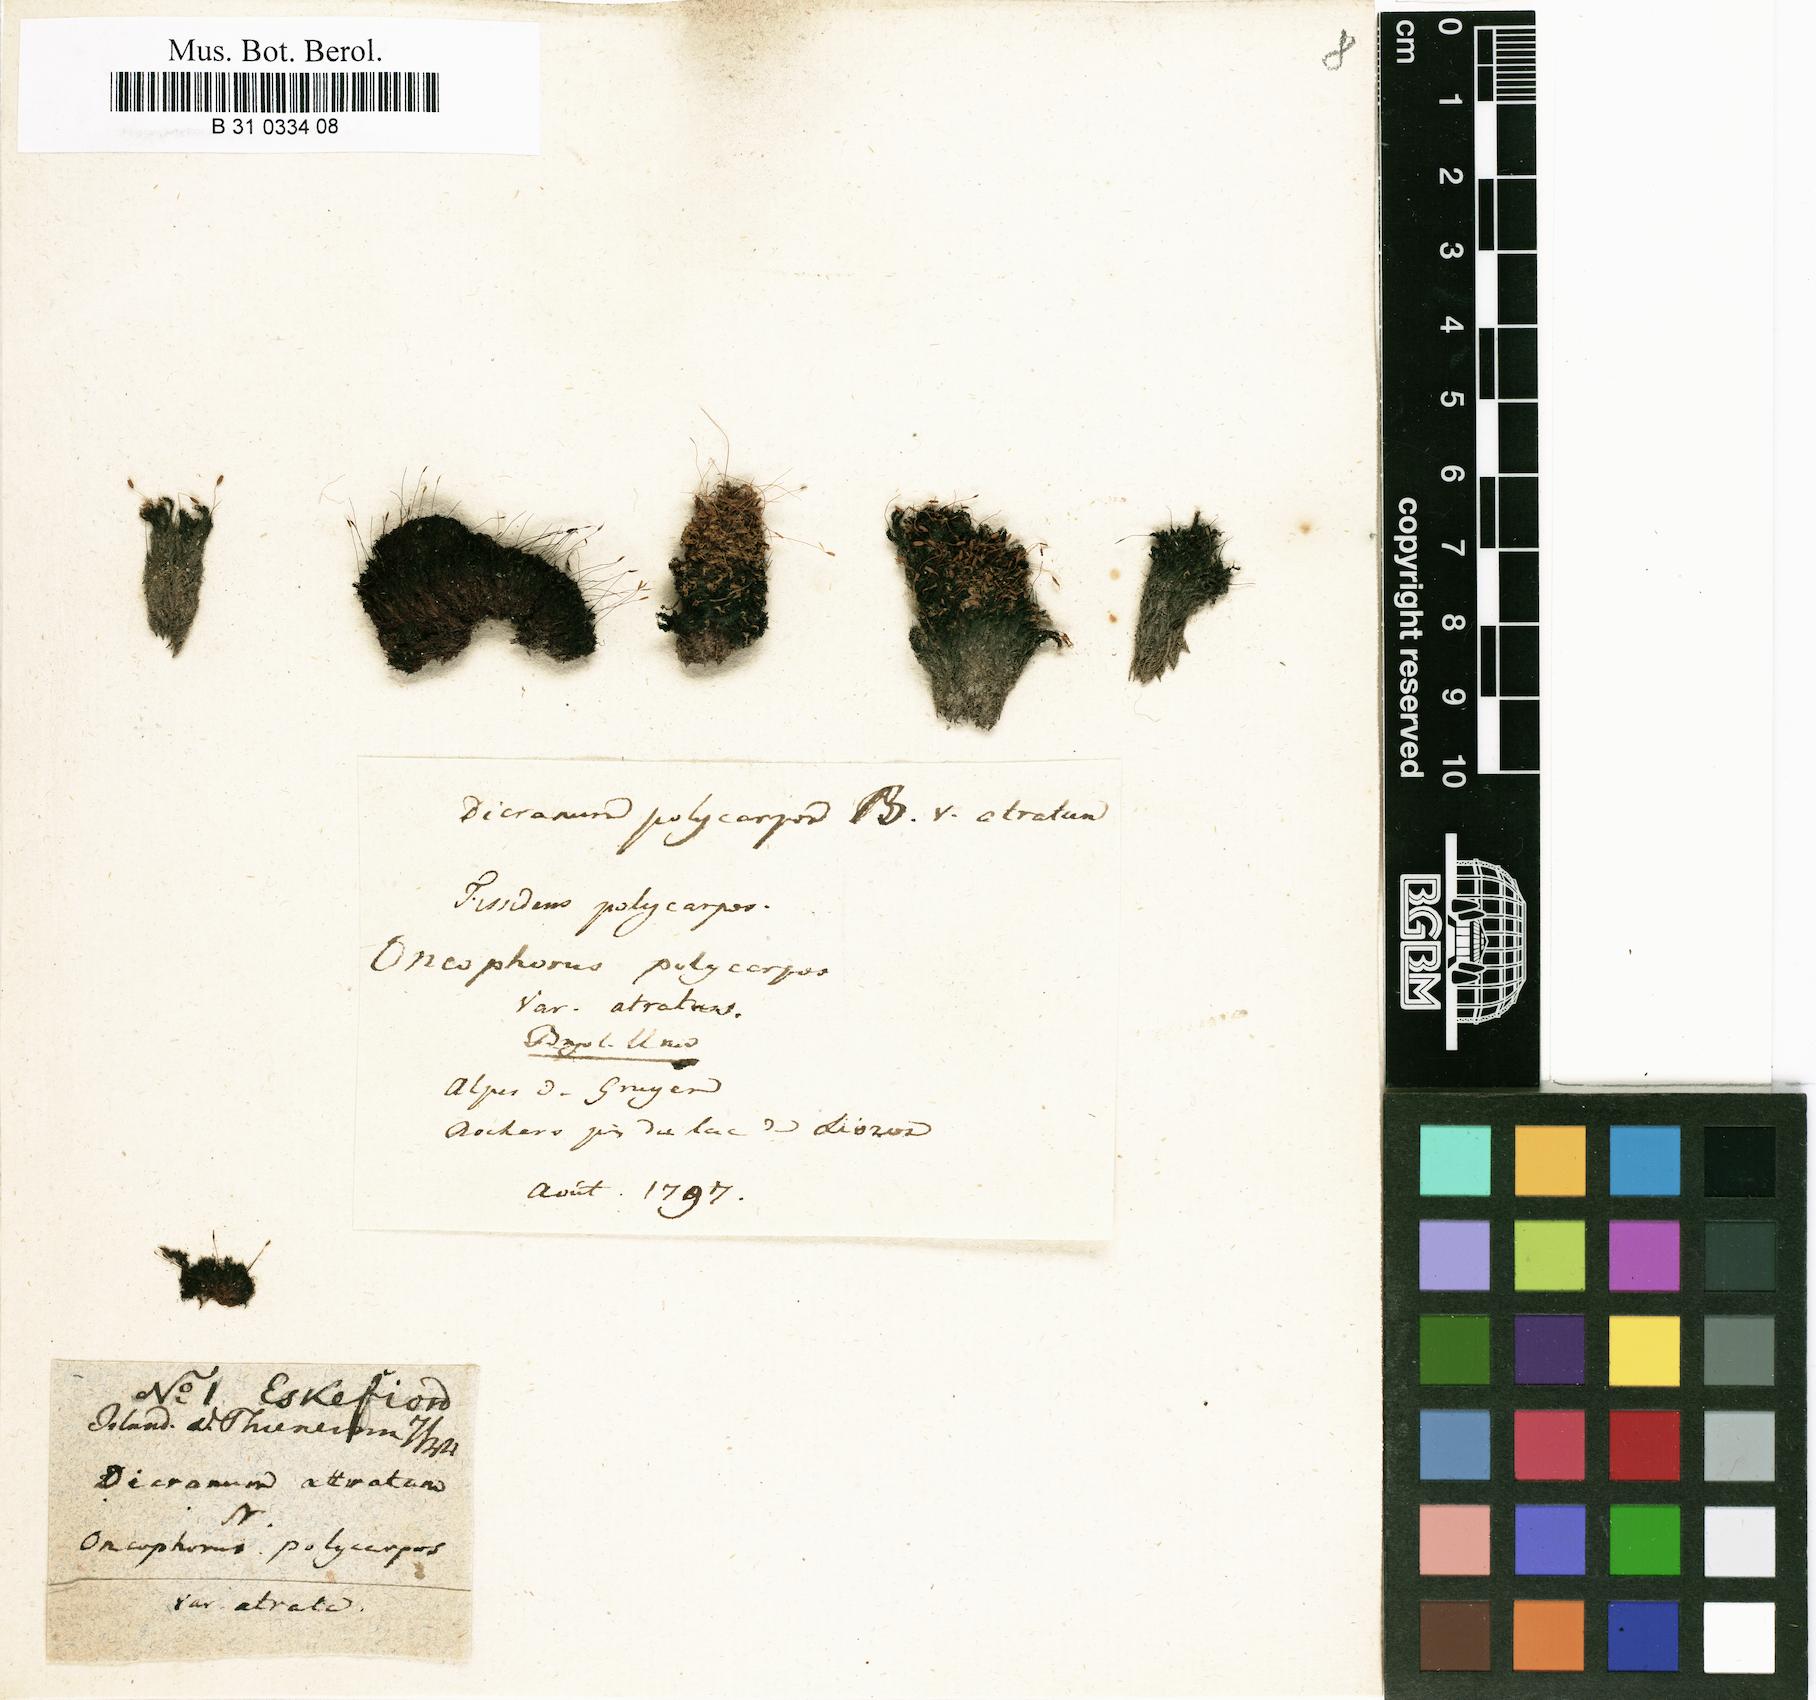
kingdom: Plantae
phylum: Bryophyta
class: Bryopsida
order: Dicranales
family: Rhabdoweisiaceae
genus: Cynodontium
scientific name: Cynodontium polycarpon
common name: Many-fruited dogtooth moss
